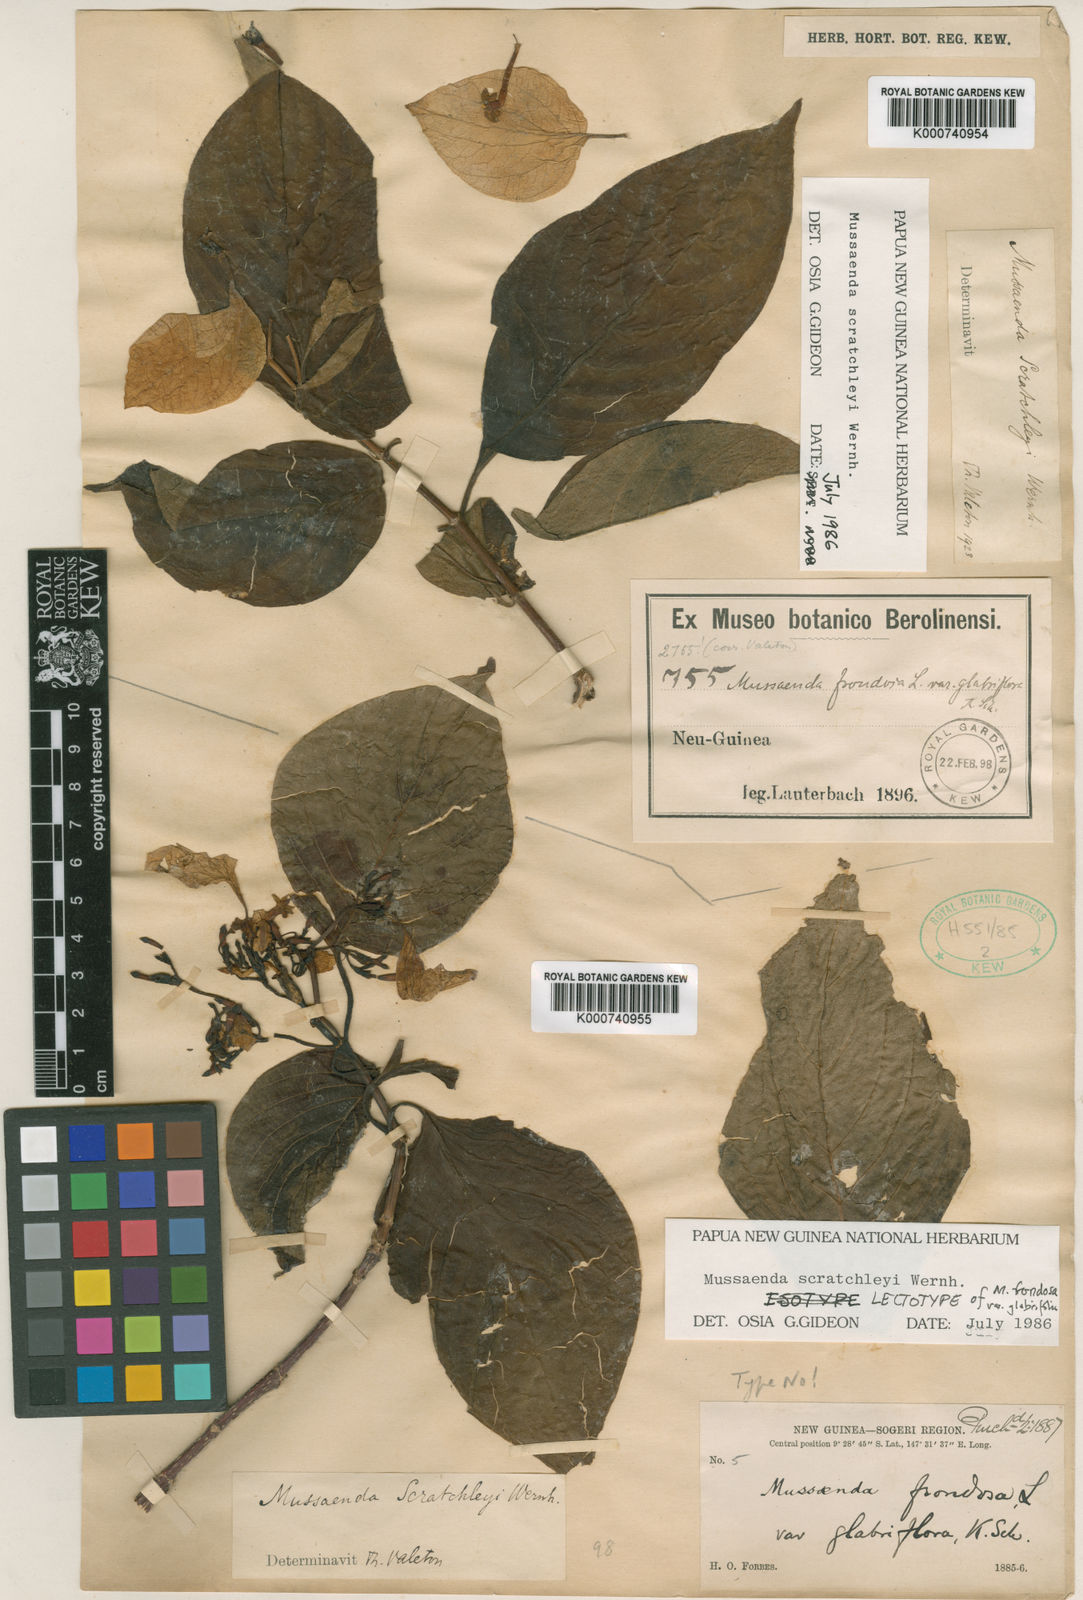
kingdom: Plantae
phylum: Tracheophyta
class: Magnoliopsida
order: Gentianales
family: Rubiaceae
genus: Mussaenda
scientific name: Mussaenda scratchleyi
